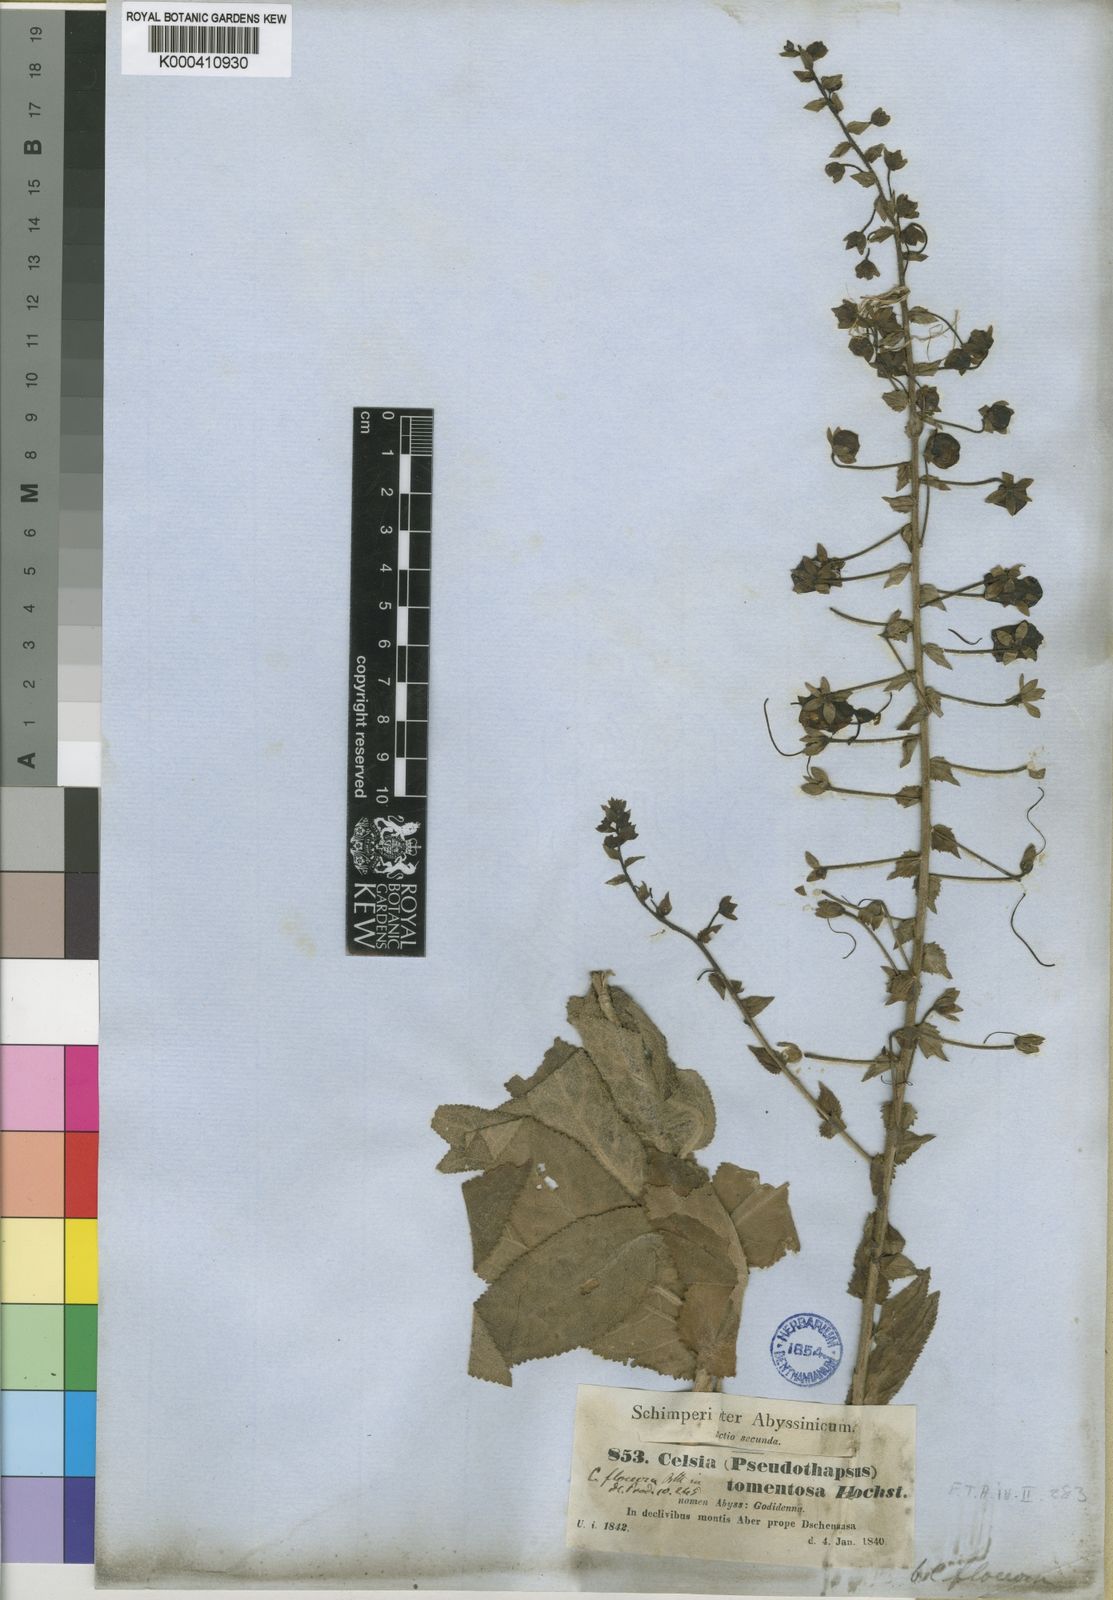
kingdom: Plantae
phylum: Tracheophyta
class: Magnoliopsida
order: Lamiales
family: Scrophulariaceae
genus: Verbascum
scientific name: Verbascum benthamianum
